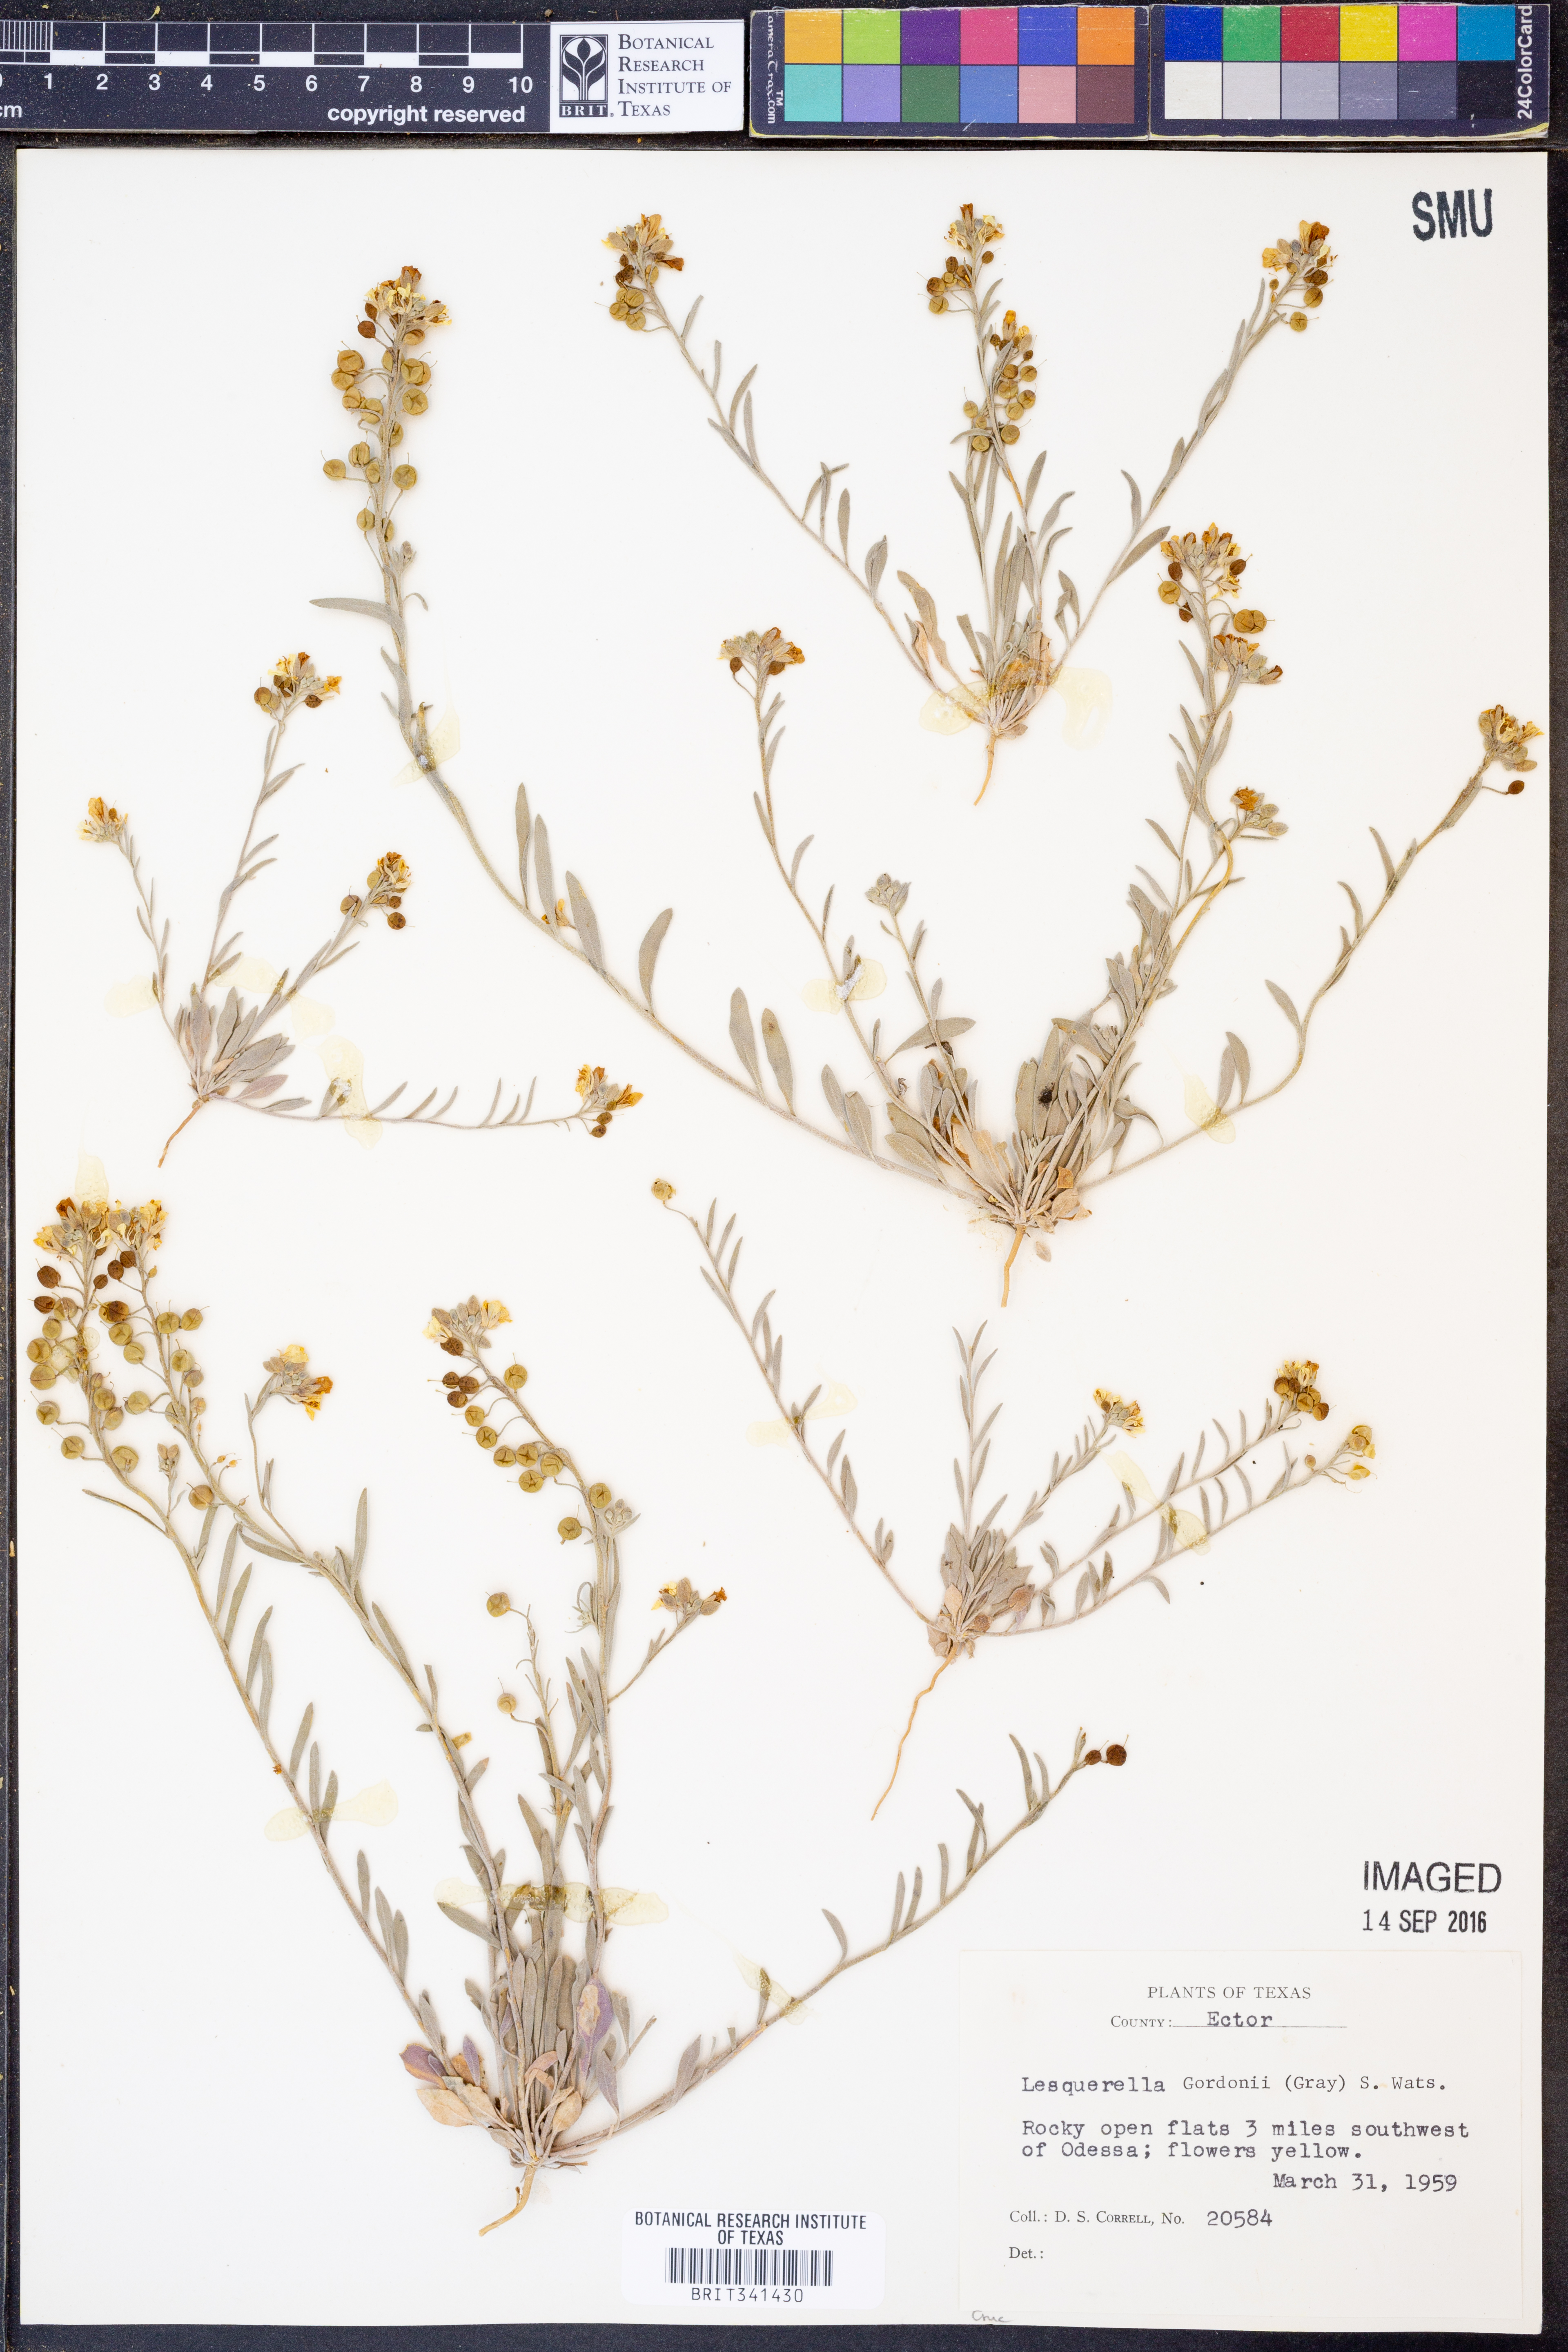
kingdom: Plantae
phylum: Tracheophyta
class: Magnoliopsida
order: Brassicales
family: Brassicaceae
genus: Physaria
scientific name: Physaria gordonii
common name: Gordon's bladderpod
